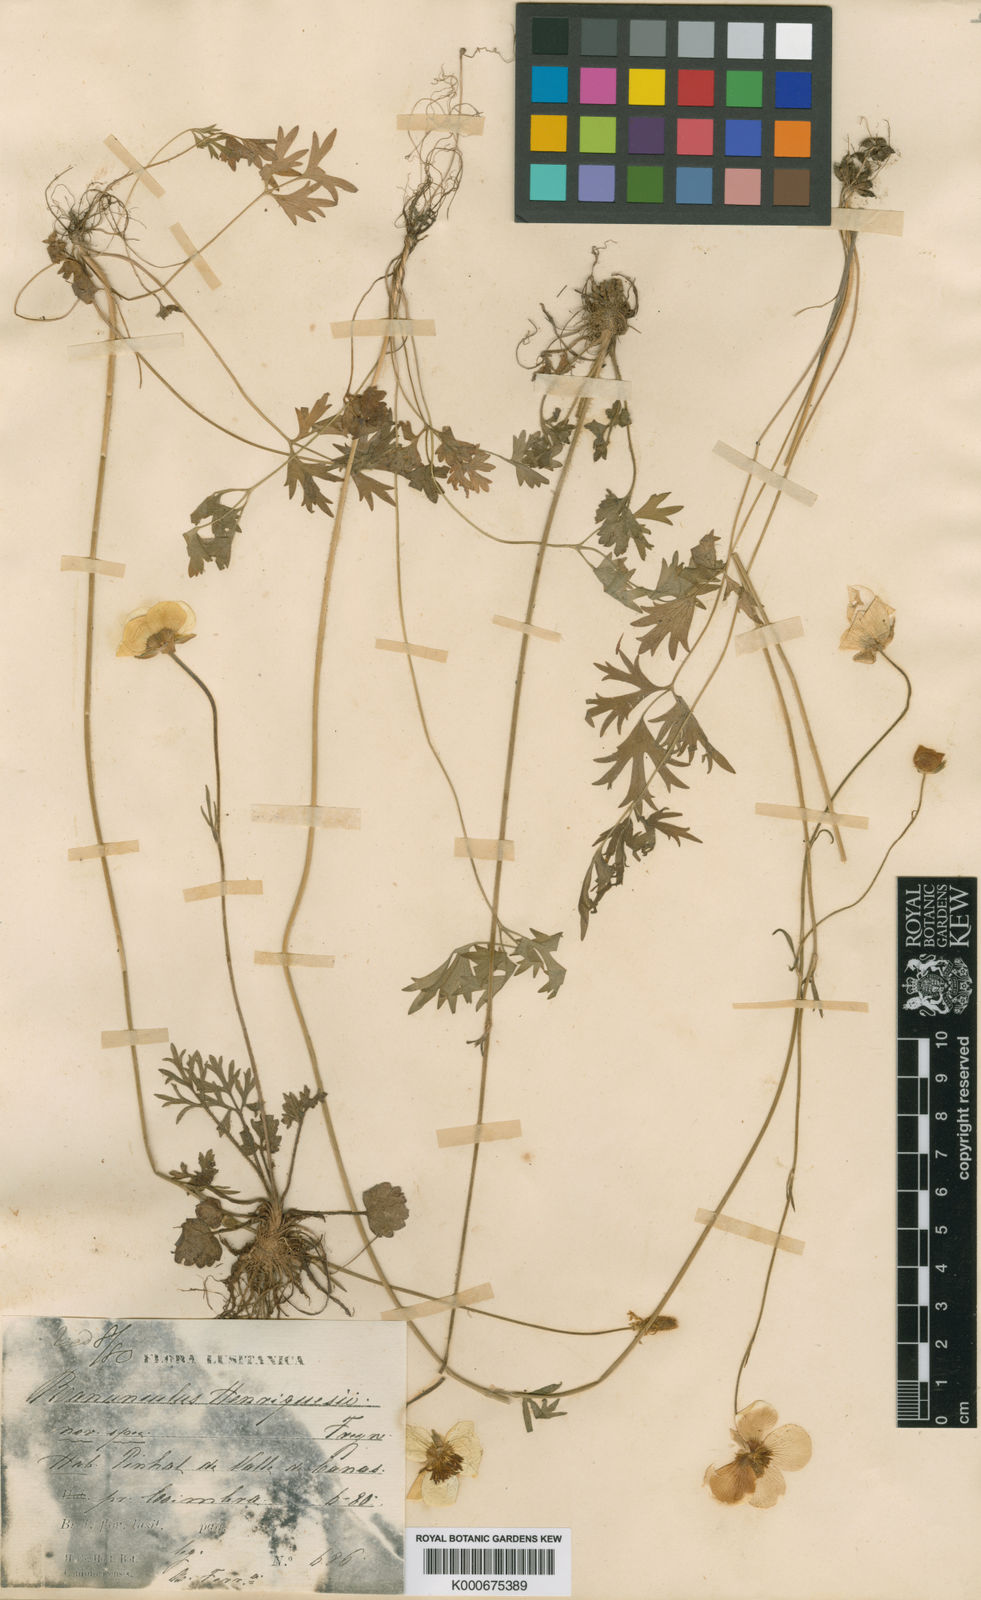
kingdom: Plantae
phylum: Tracheophyta
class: Magnoliopsida
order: Ranunculales
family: Ranunculaceae
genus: Ranunculus
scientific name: Ranunculus gregarius
